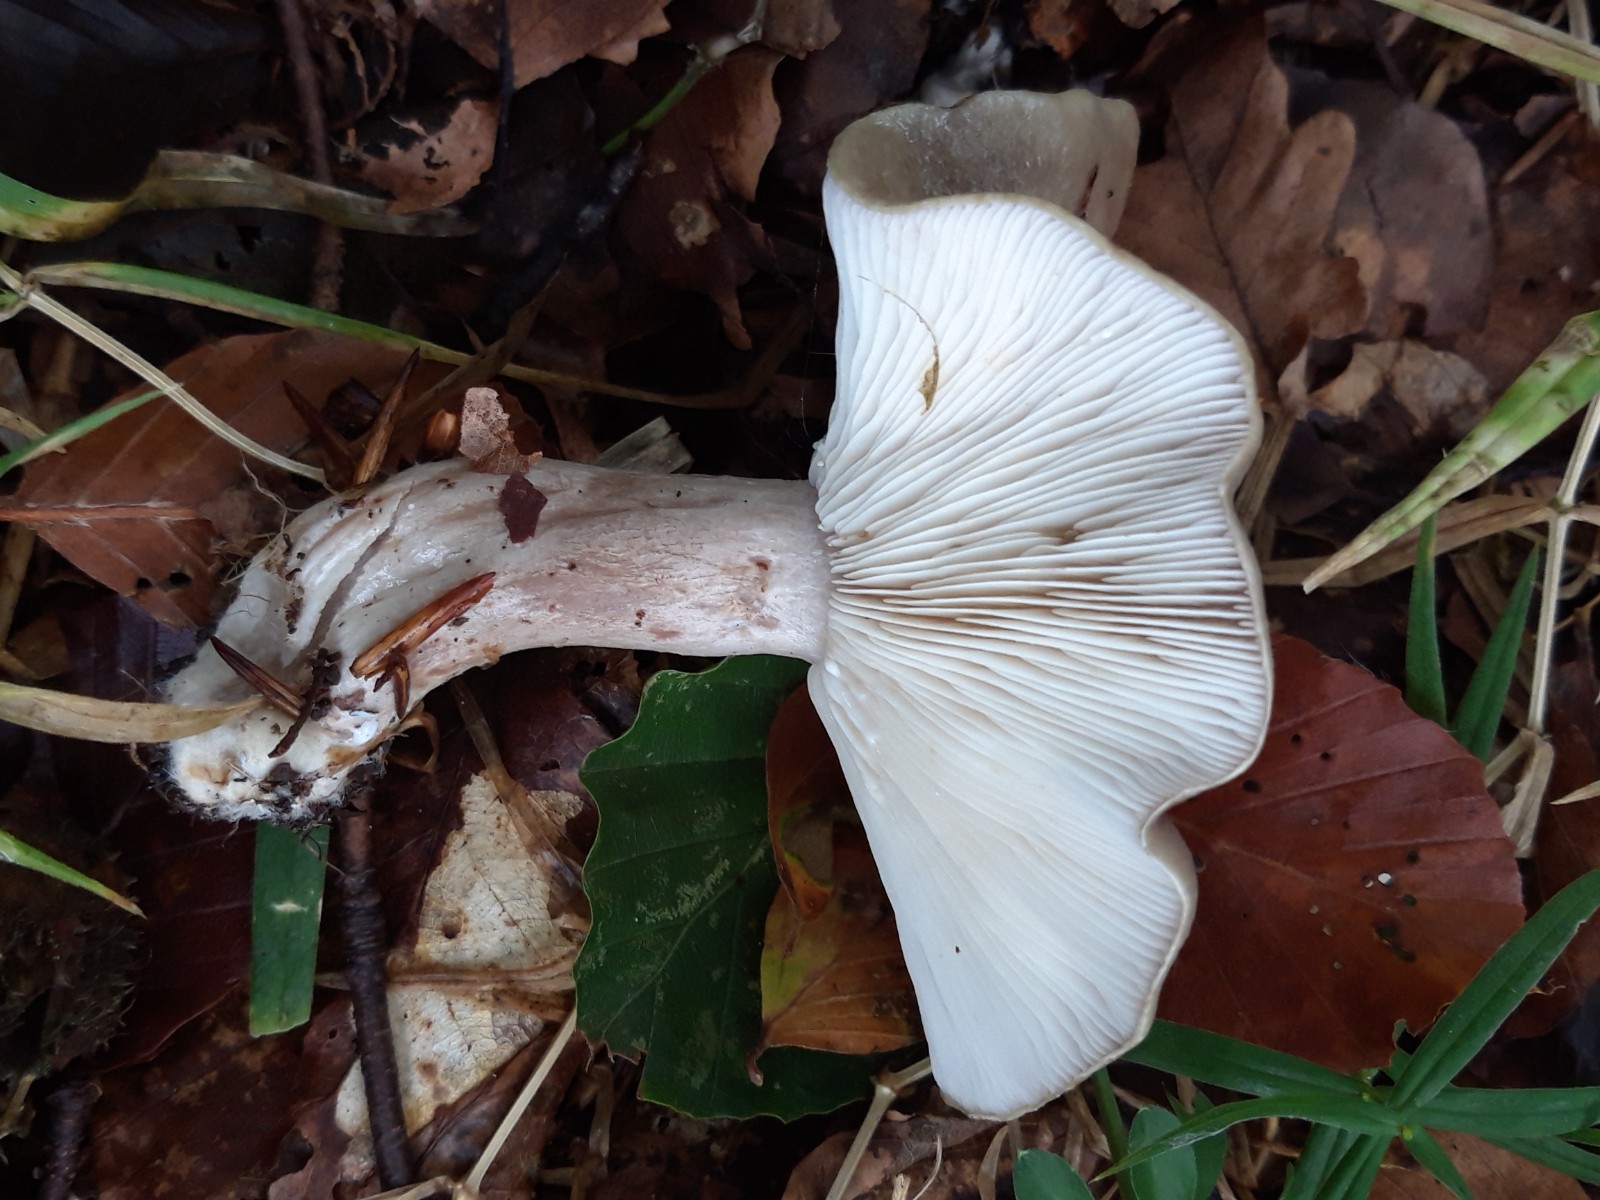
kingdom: Fungi
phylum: Basidiomycota
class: Agaricomycetes
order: Russulales
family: Russulaceae
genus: Lactarius
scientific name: Lactarius blennius
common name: dråbeplettet mælkehat
